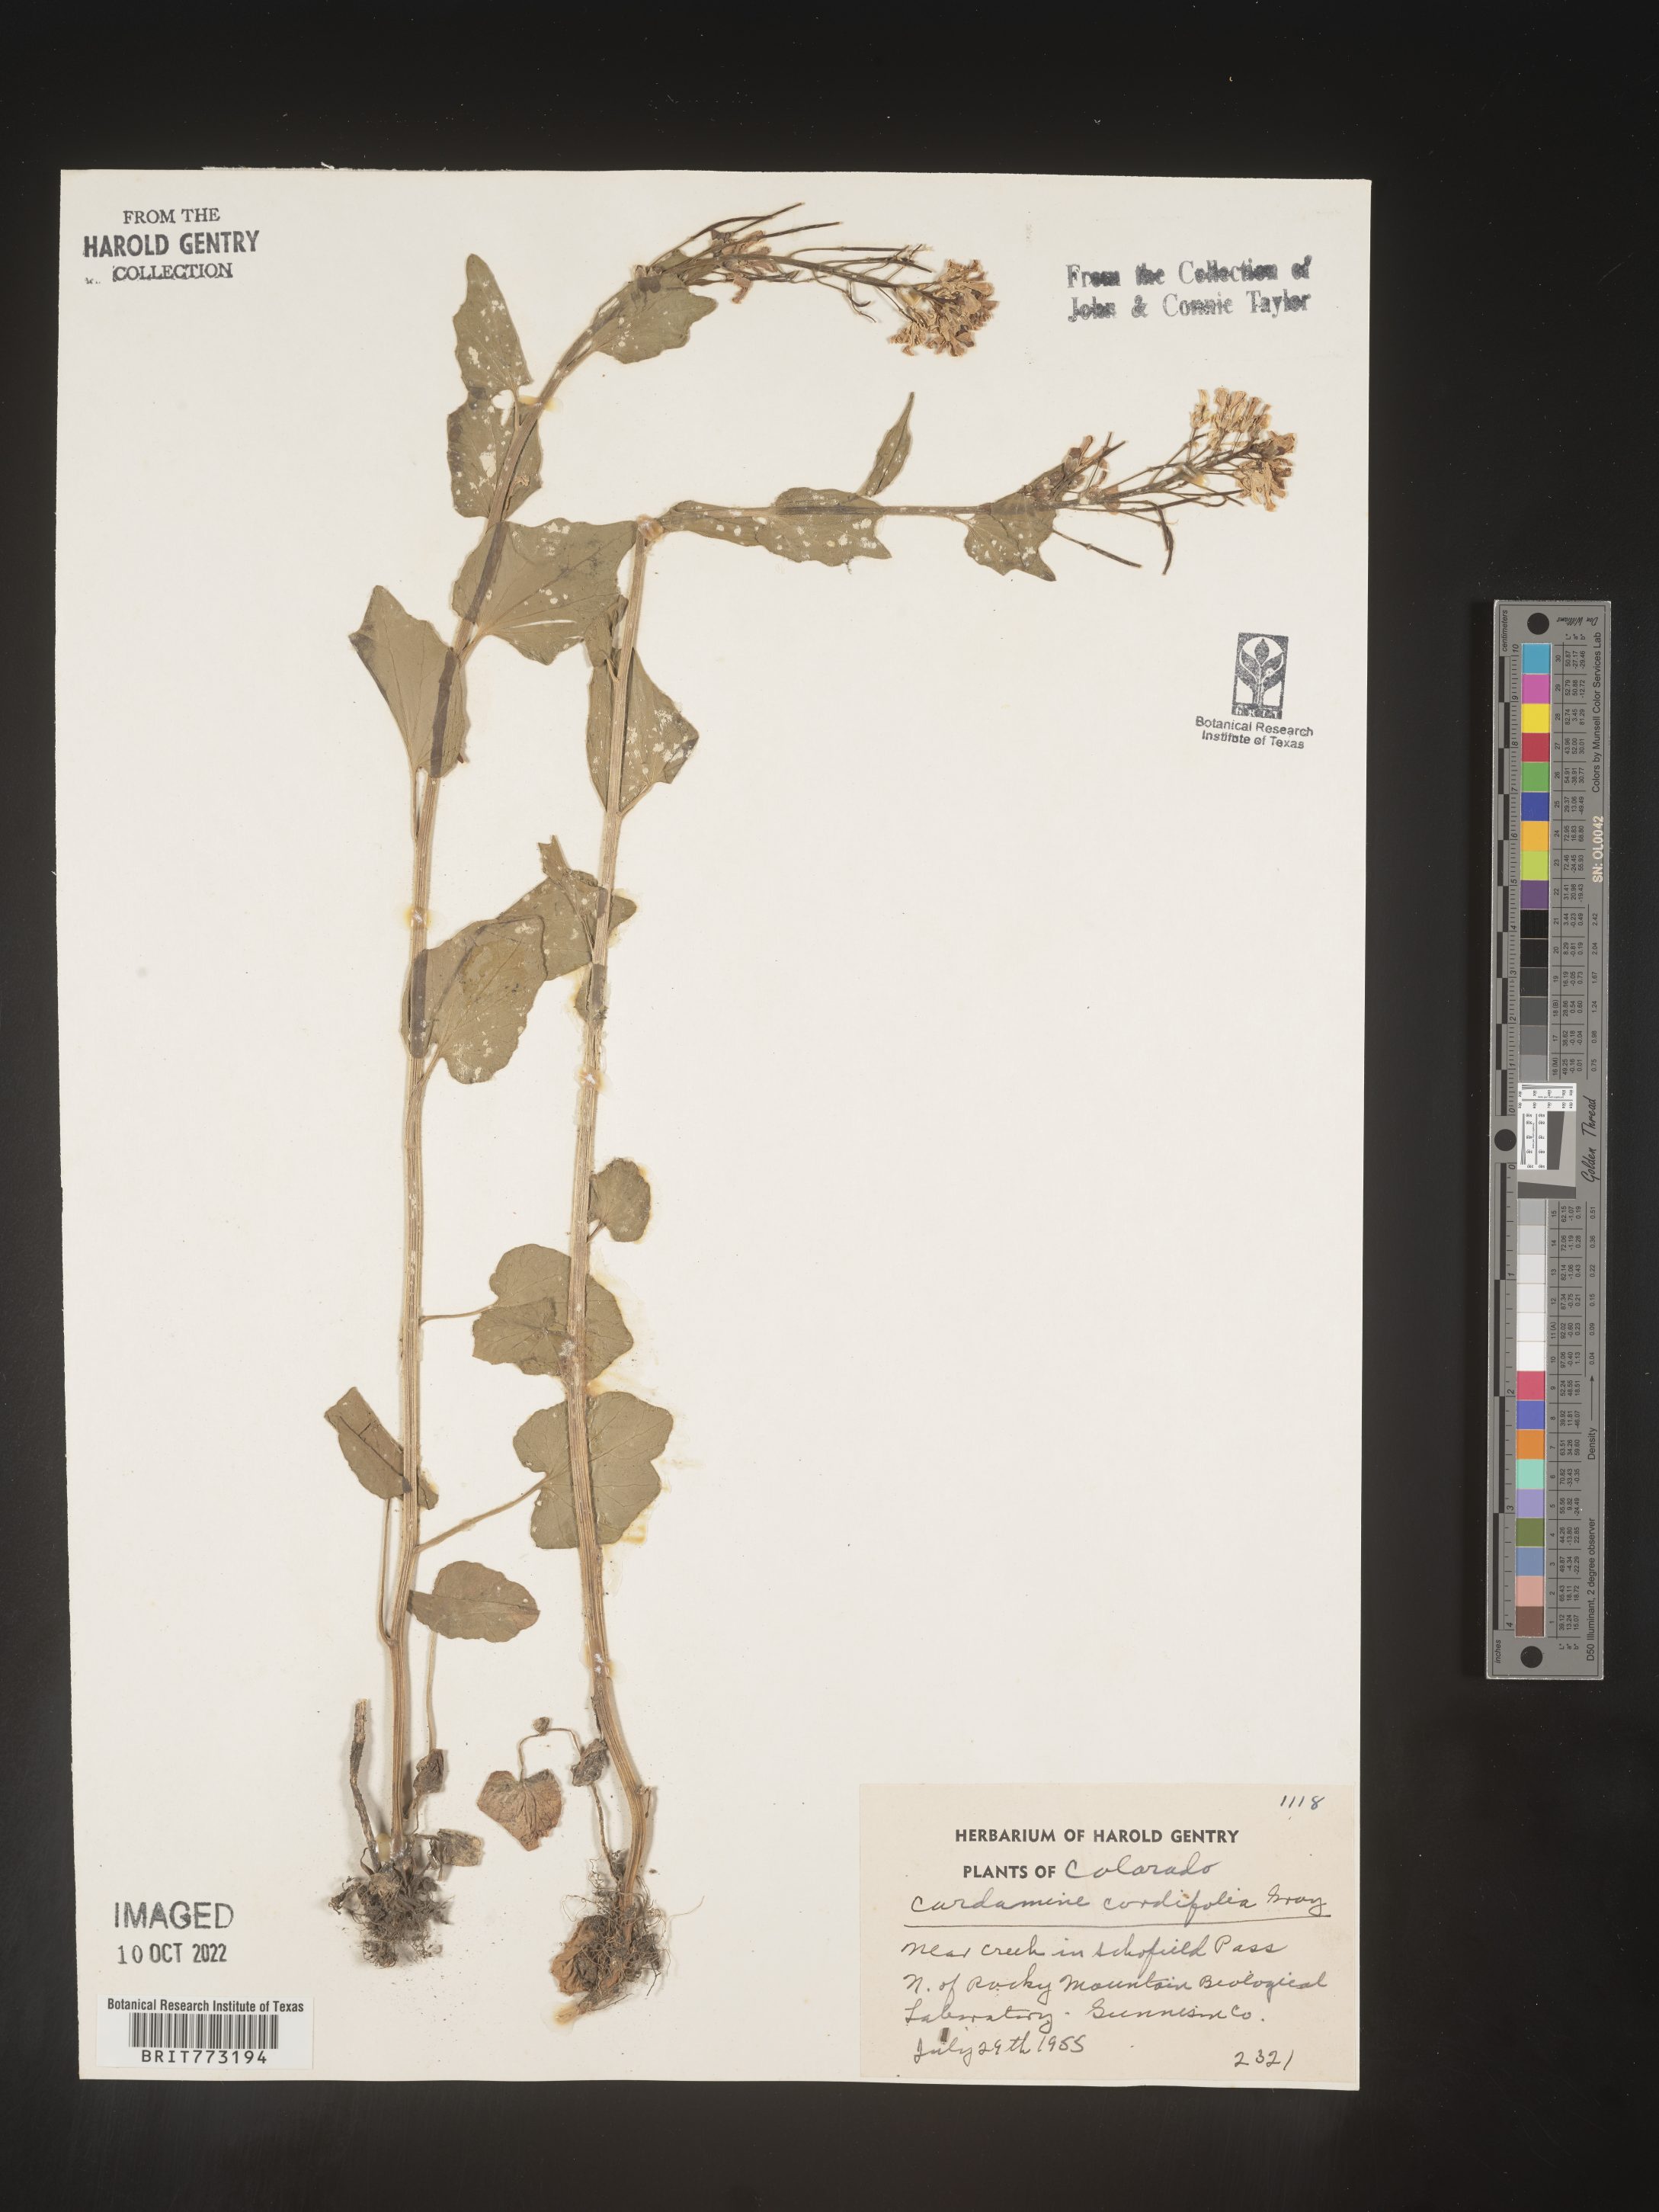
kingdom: Plantae
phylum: Tracheophyta
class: Magnoliopsida
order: Brassicales
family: Brassicaceae
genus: Cardamine
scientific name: Cardamine
